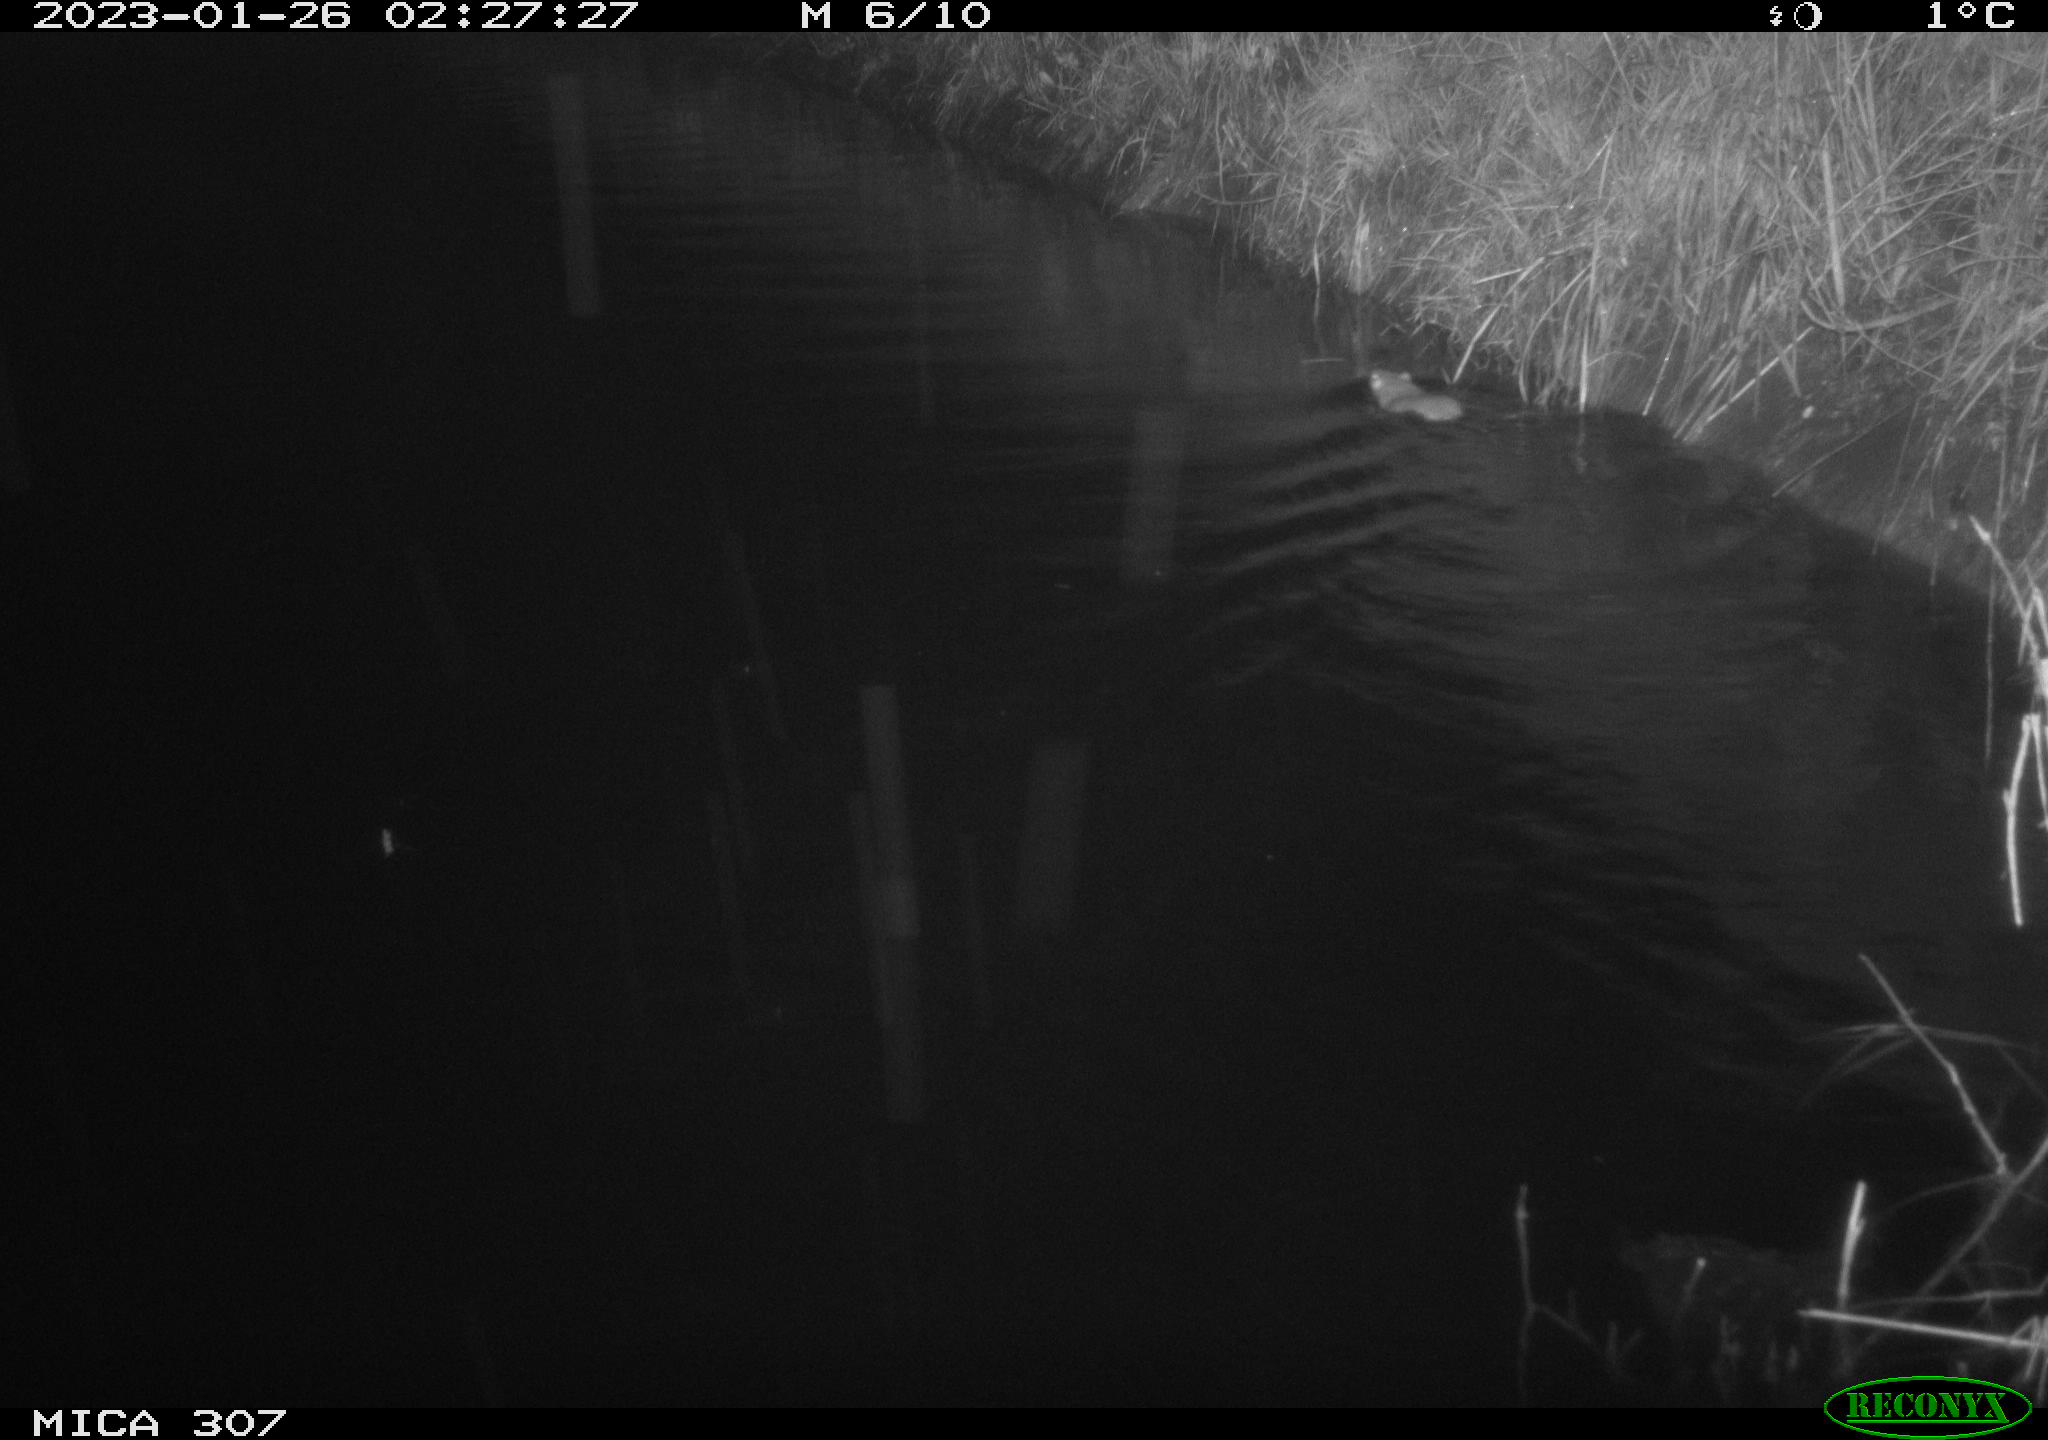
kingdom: Animalia
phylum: Chordata
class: Mammalia
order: Rodentia
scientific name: Rodentia
